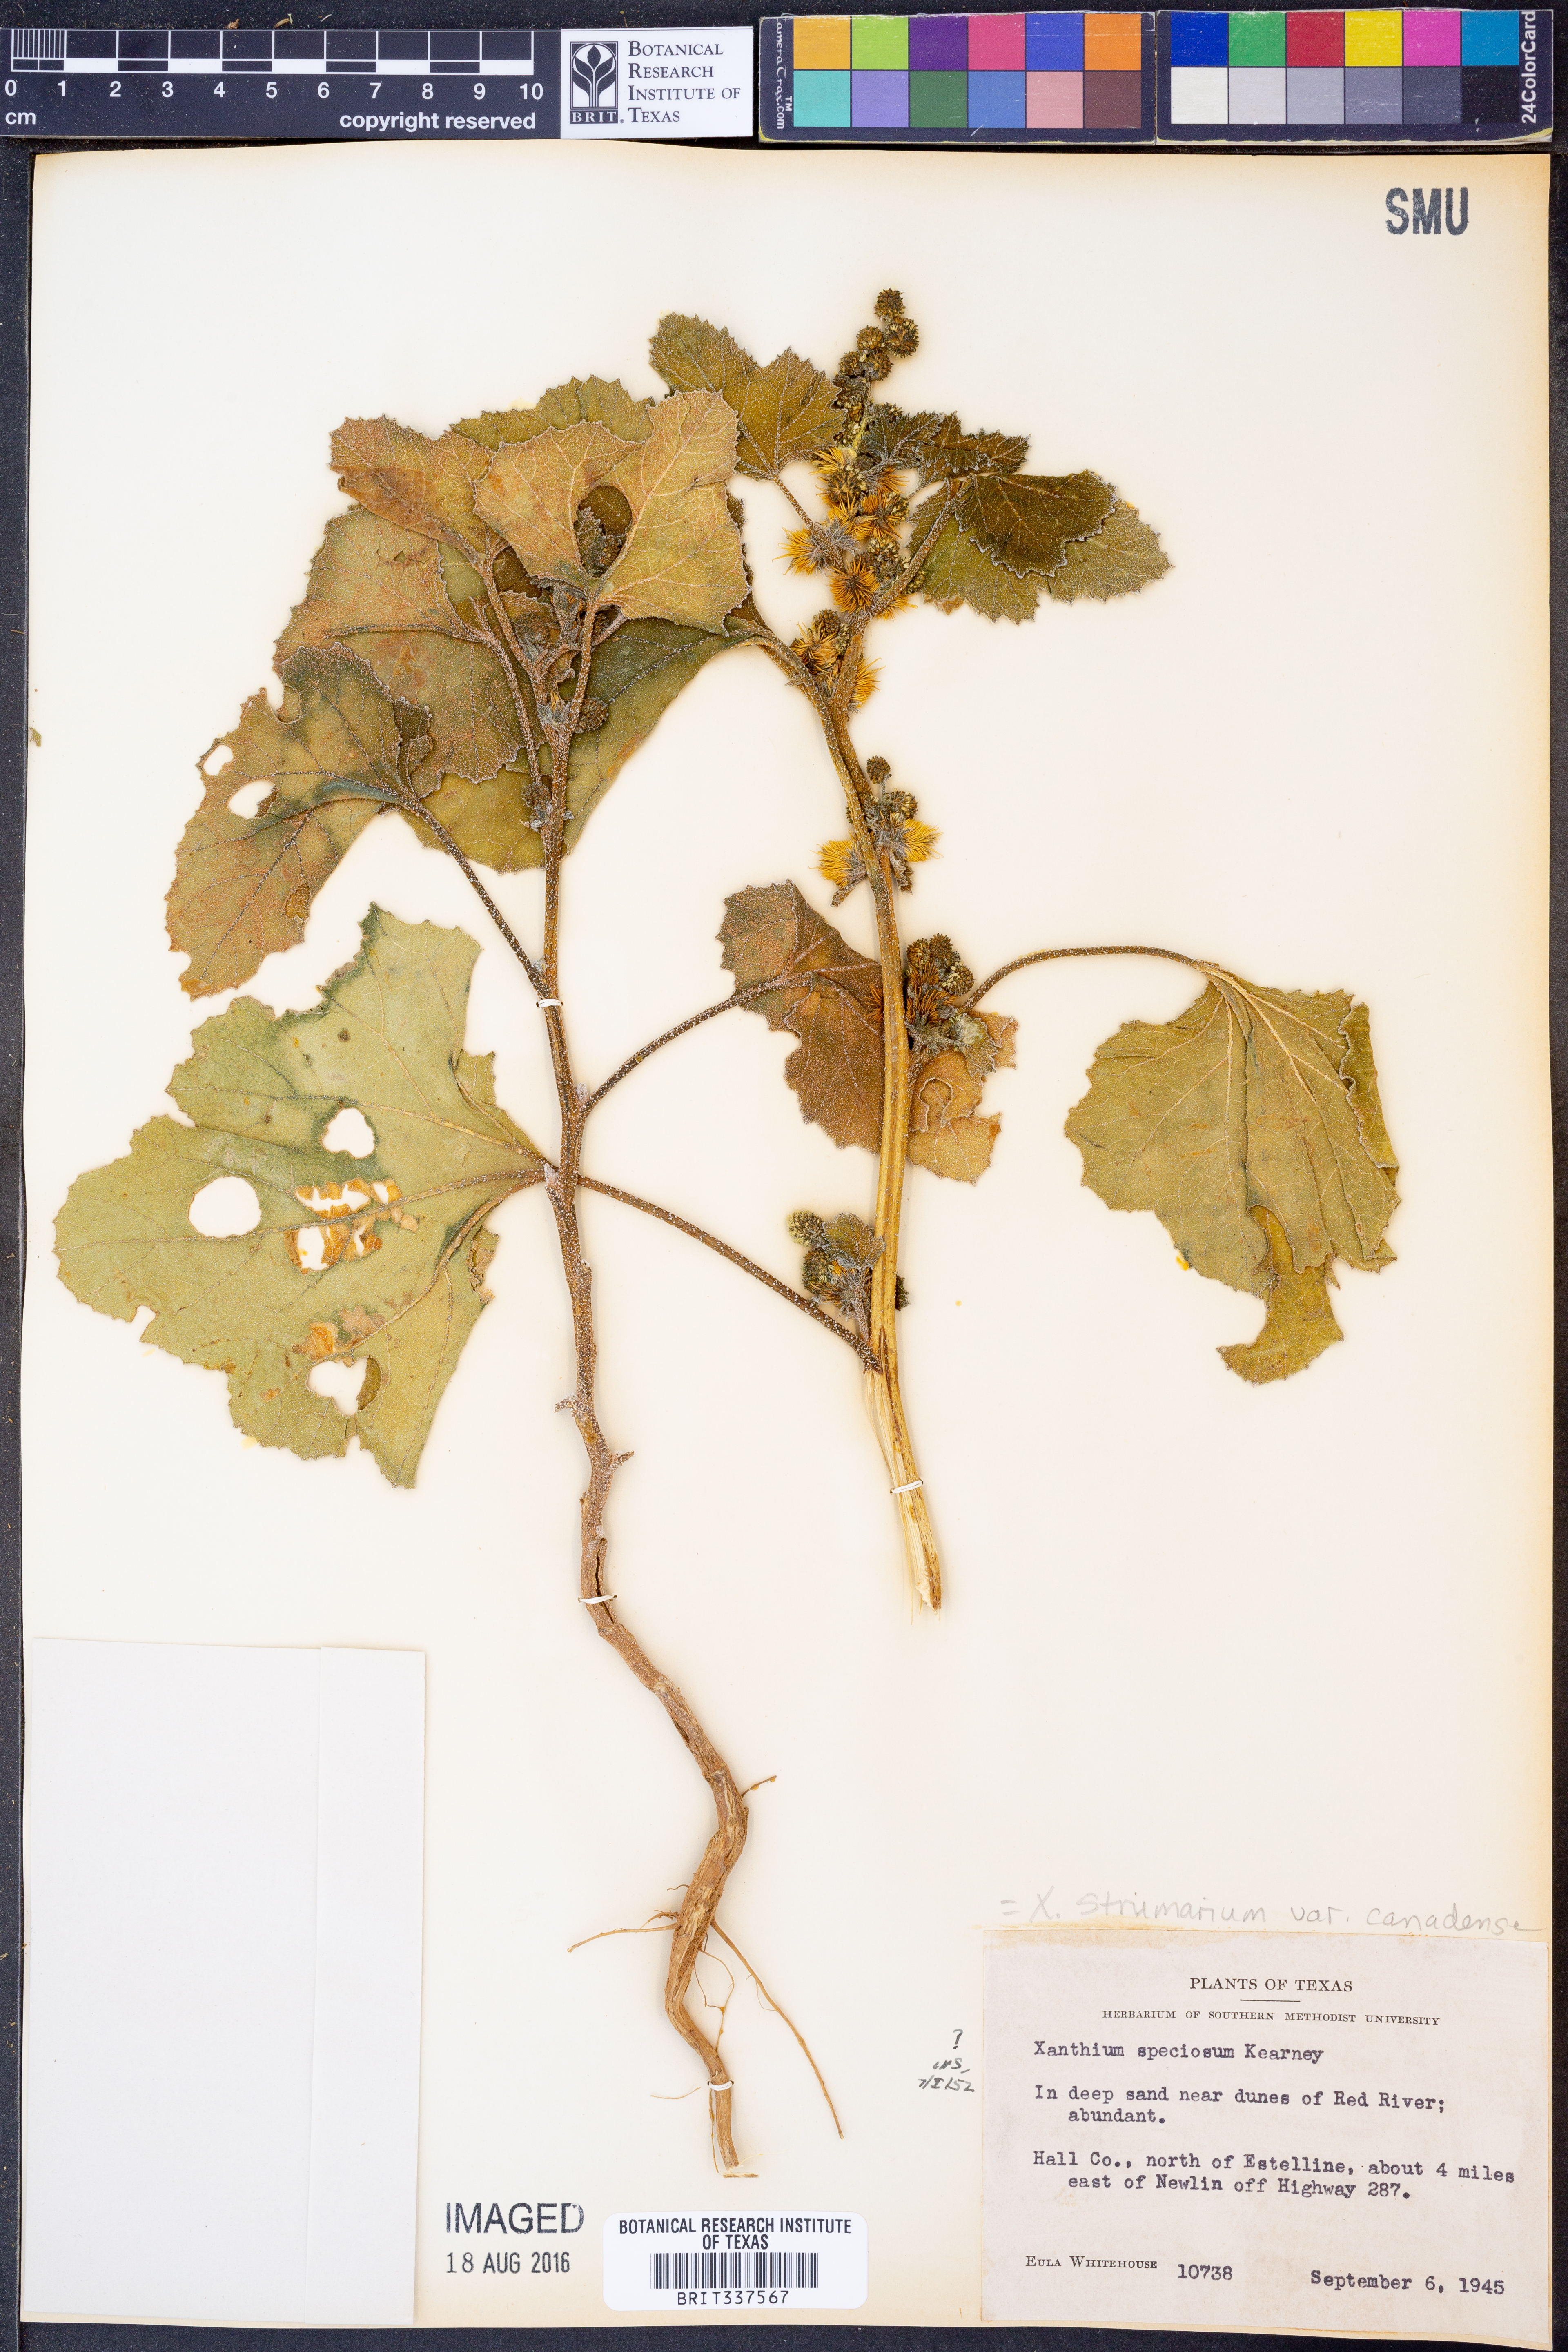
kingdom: Plantae
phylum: Tracheophyta
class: Magnoliopsida
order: Asterales
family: Asteraceae
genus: Xanthium
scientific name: Xanthium orientale
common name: Californian burr
